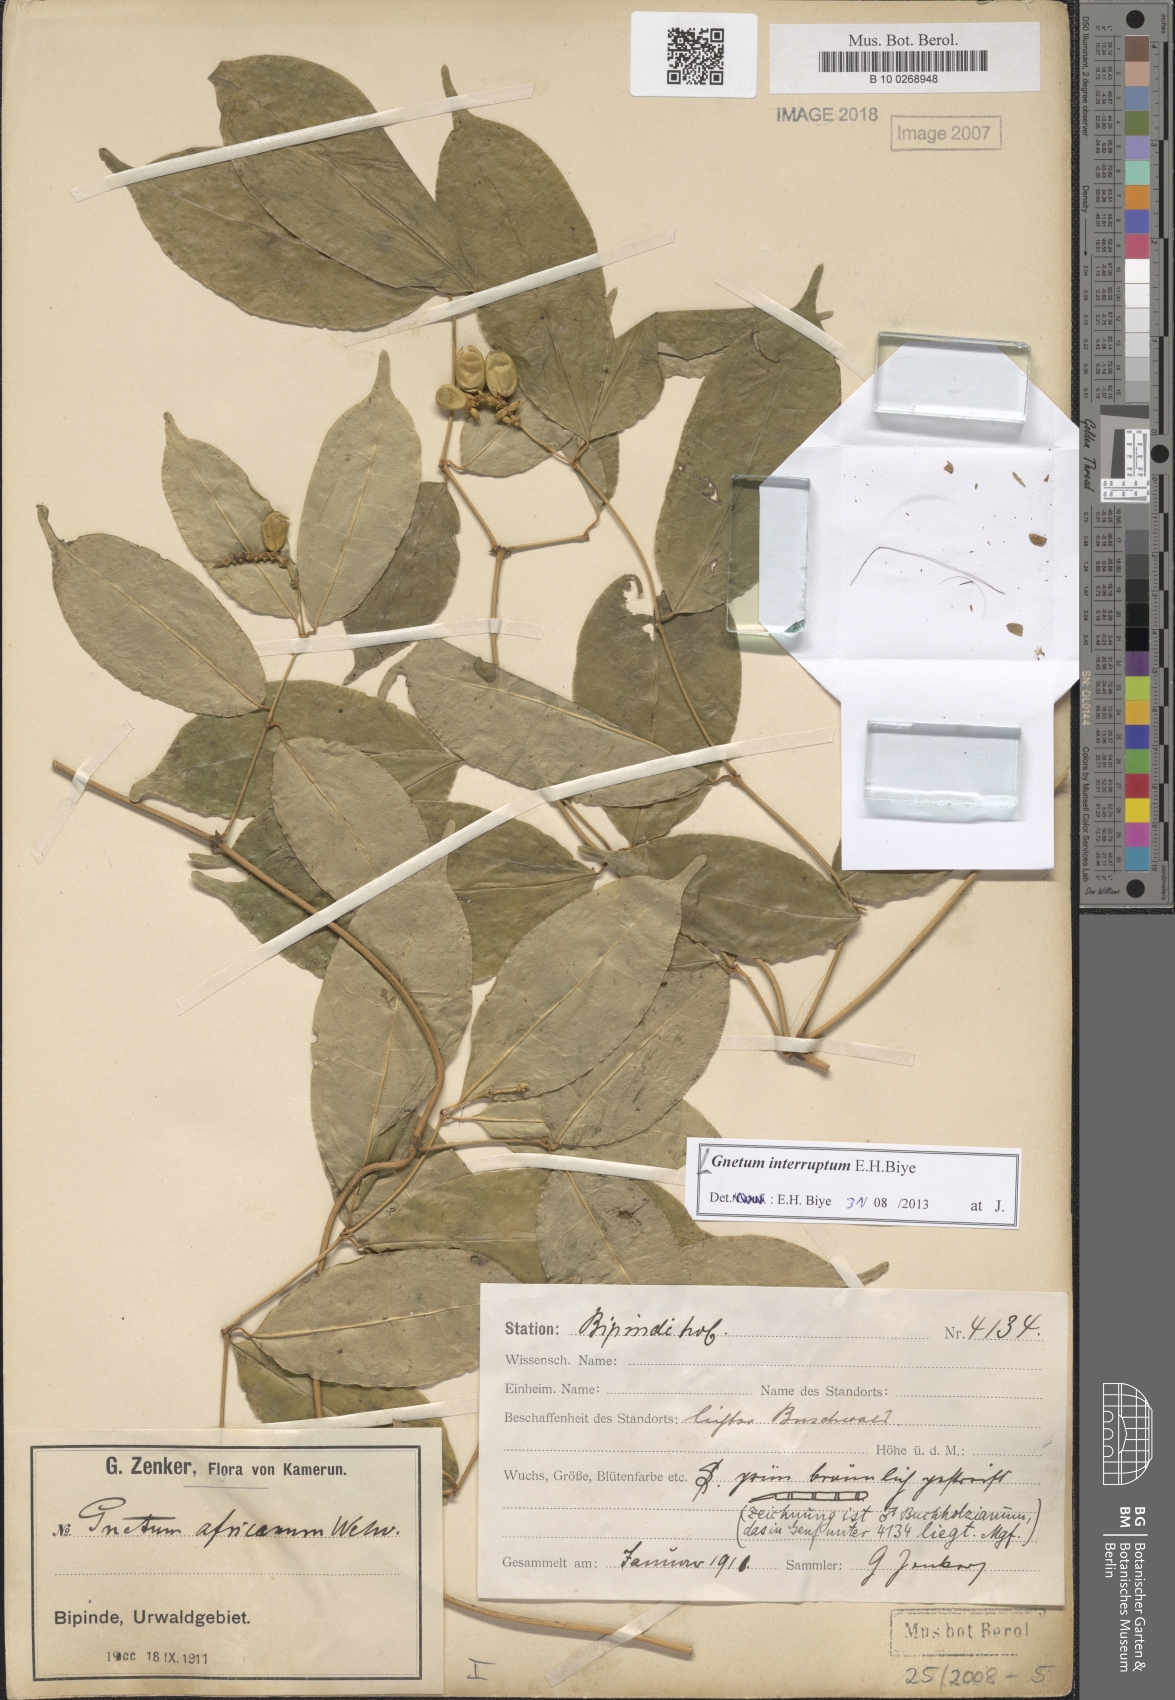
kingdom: Plantae
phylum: Tracheophyta
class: Gnetopsida
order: Gnetales
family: Gnetaceae
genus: Gnetum
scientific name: Gnetum interruptum
